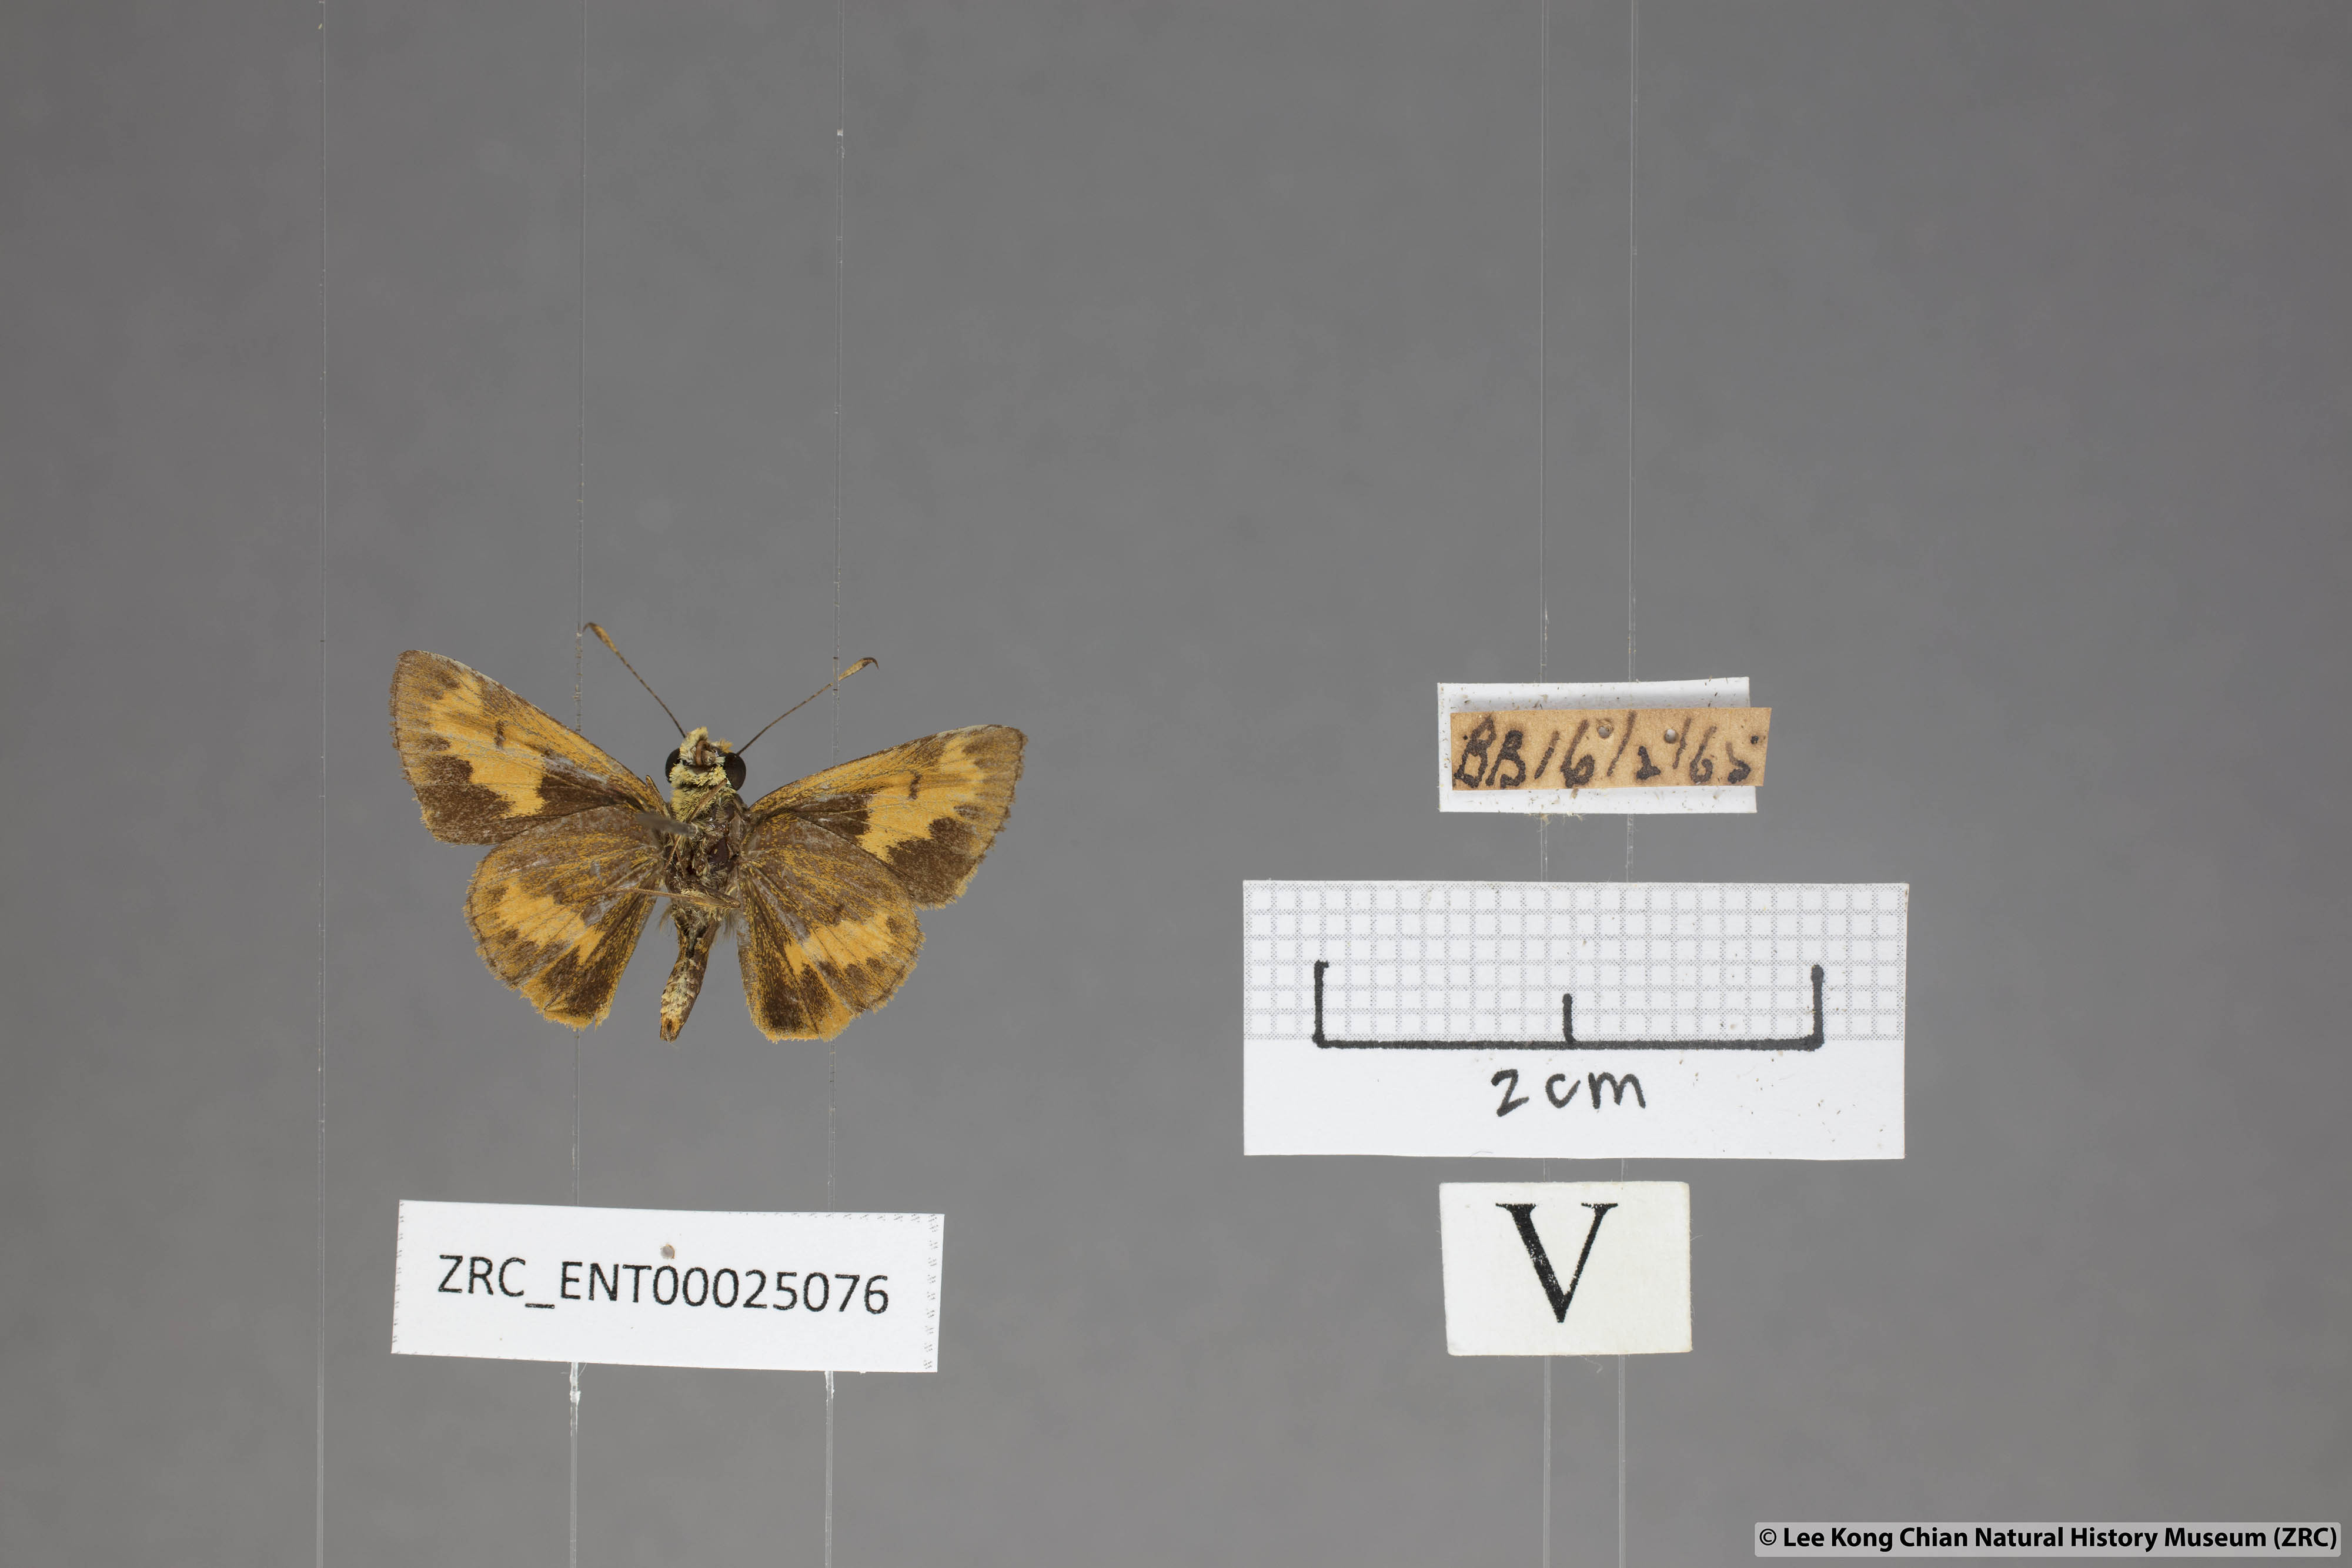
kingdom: Animalia
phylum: Arthropoda
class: Insecta
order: Lepidoptera
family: Hesperiidae
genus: Oriens
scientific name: Oriens gola
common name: Common dartlet
